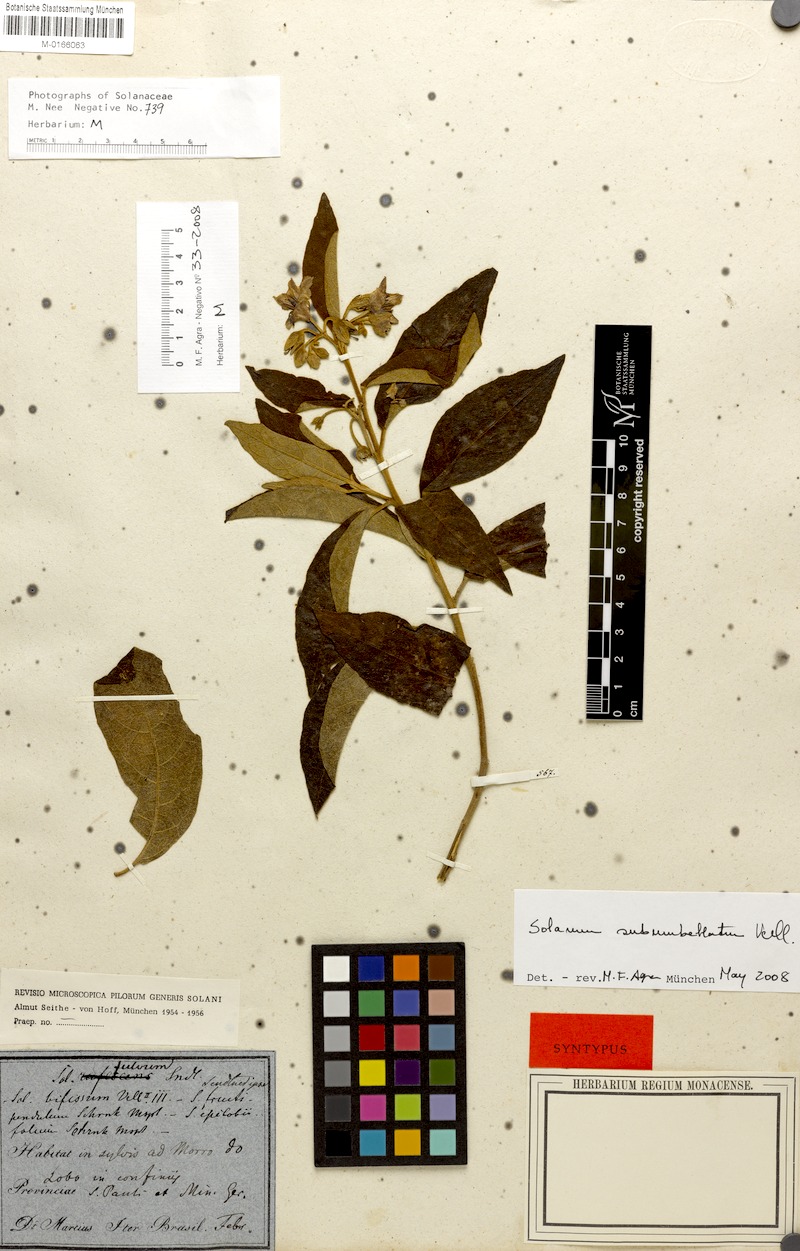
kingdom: Plantae
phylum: Tracheophyta
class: Magnoliopsida
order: Solanales
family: Solanaceae
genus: Solanum
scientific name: Solanum subumbellatum
